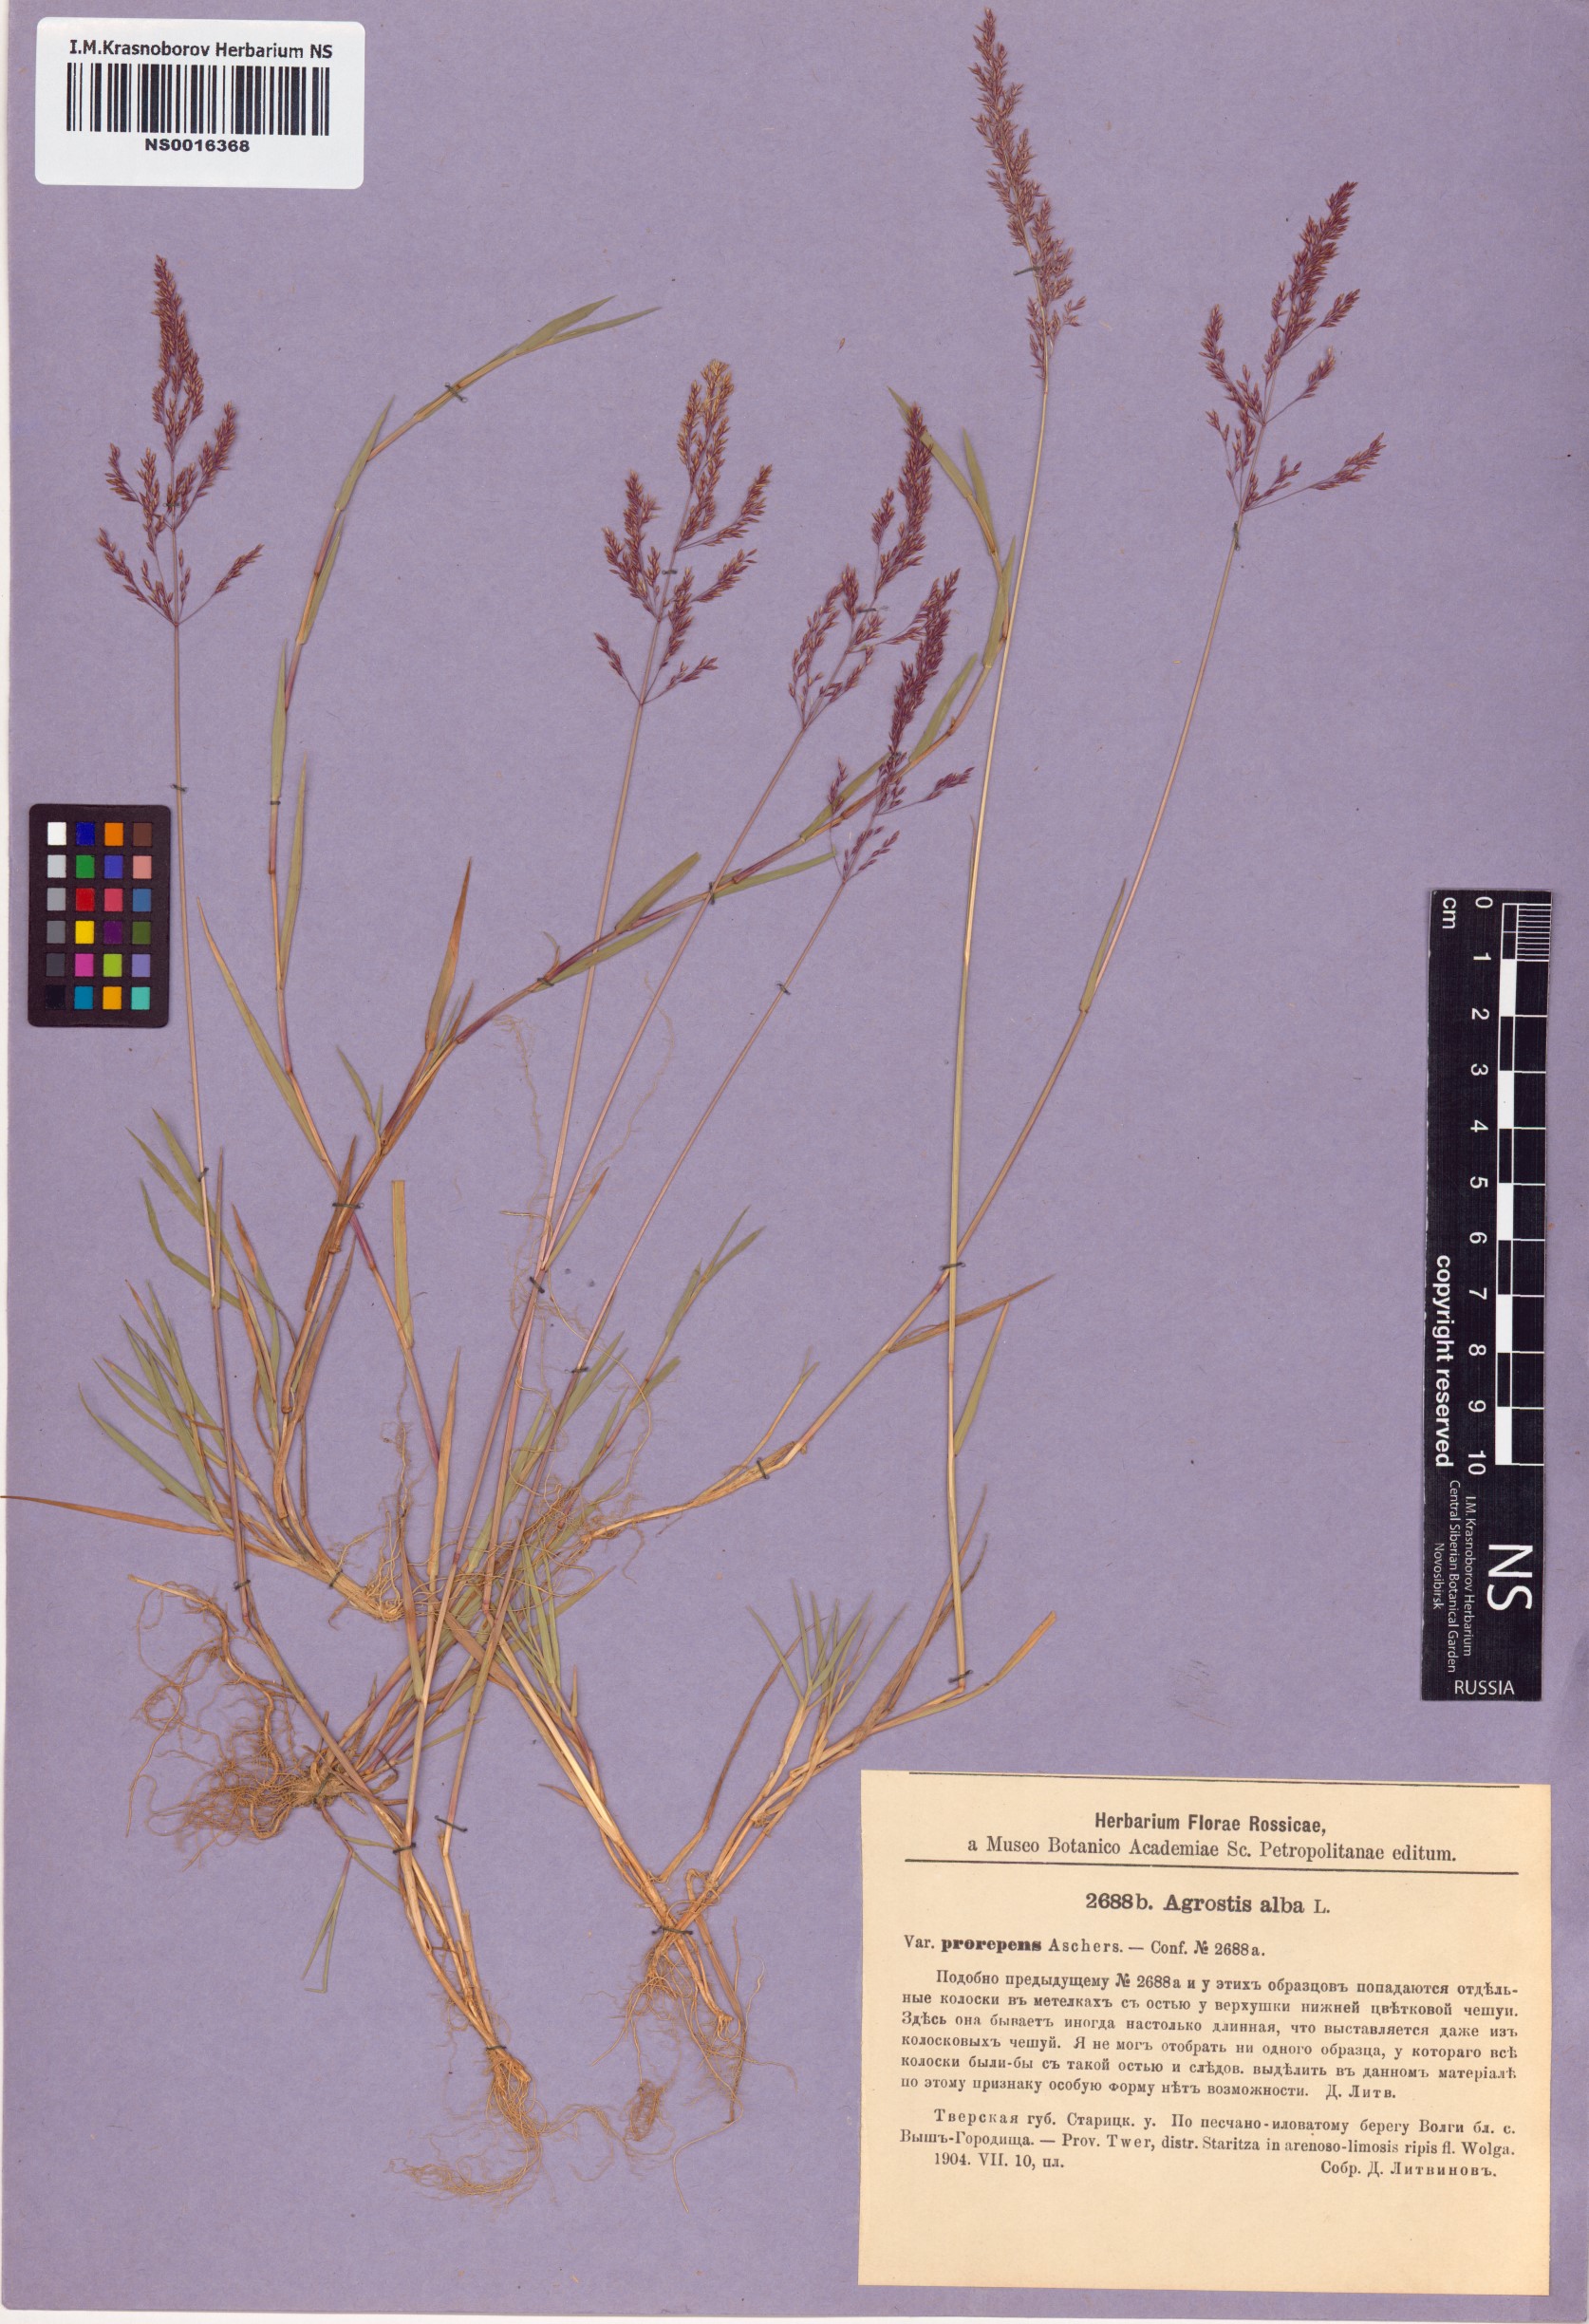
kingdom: Plantae
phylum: Tracheophyta
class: Liliopsida
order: Poales
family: Poaceae
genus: Agrostis
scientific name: Agrostis stolonifera
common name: Creeping bentgrass
